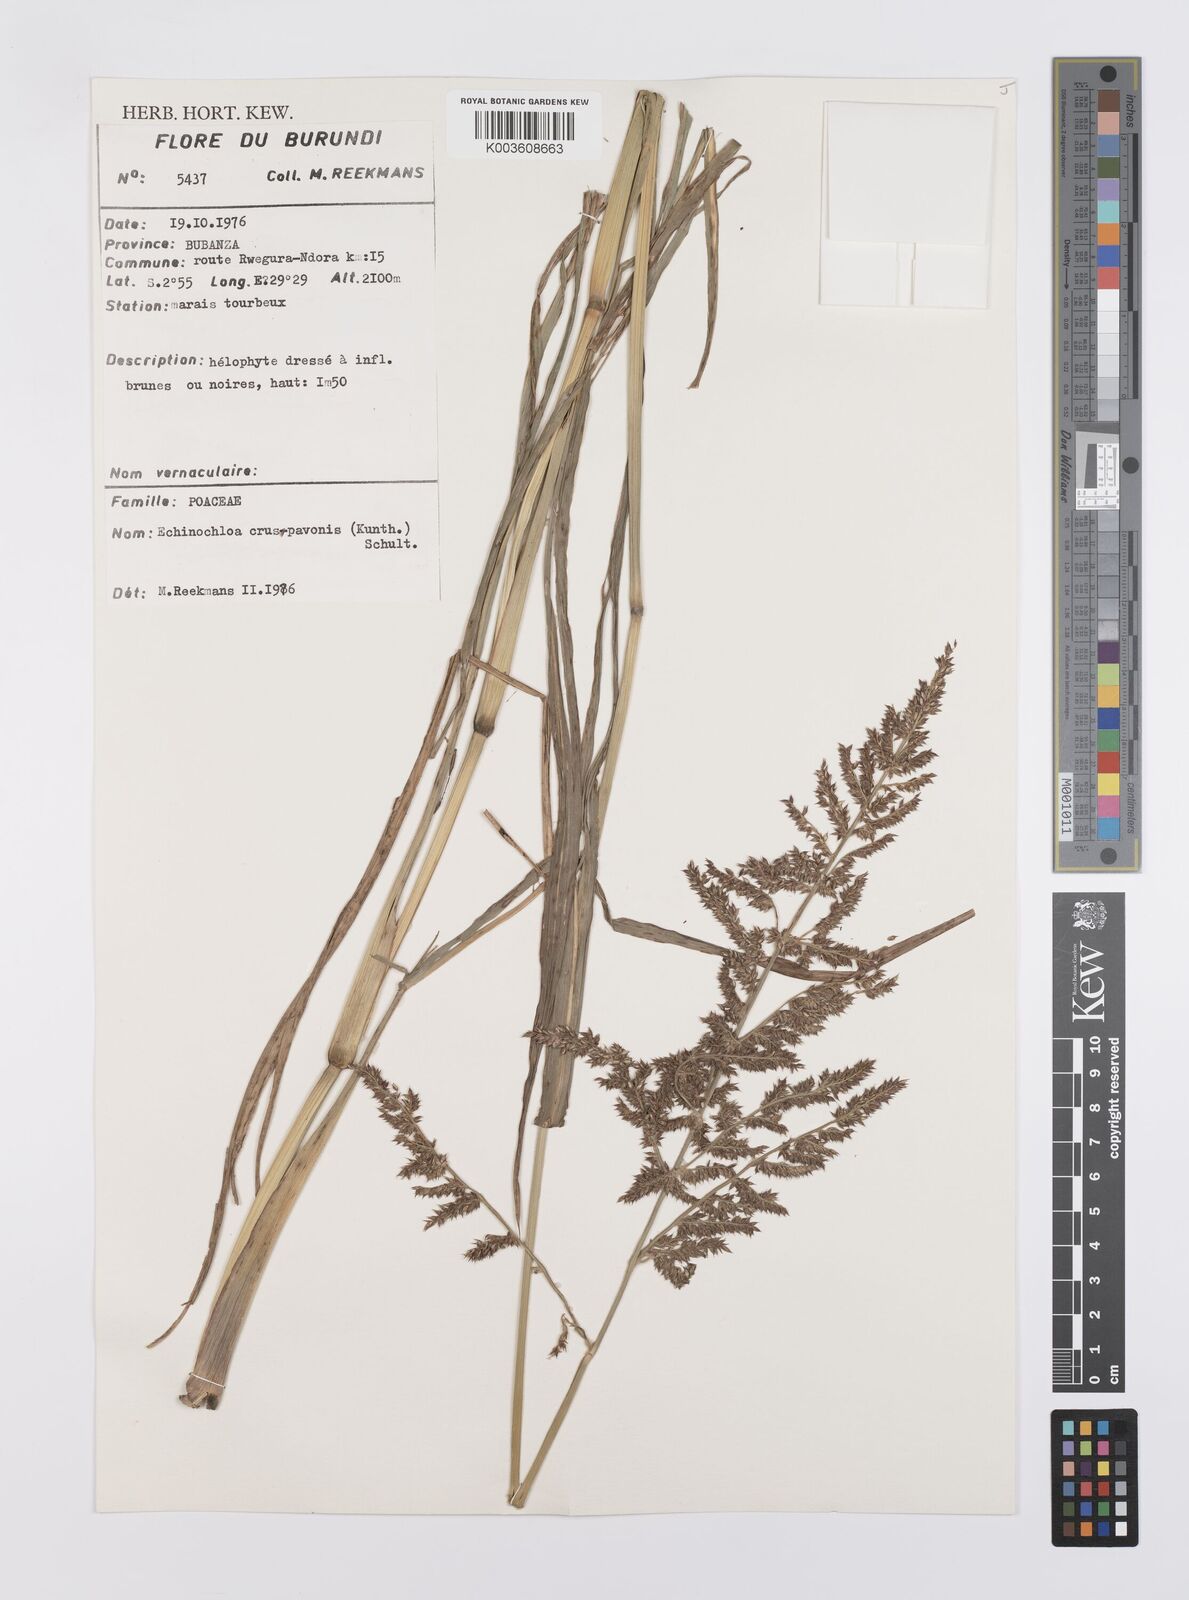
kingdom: Plantae
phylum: Tracheophyta
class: Liliopsida
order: Poales
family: Poaceae
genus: Echinochloa
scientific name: Echinochloa crus-pavonis
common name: Gulf cockspur grass
